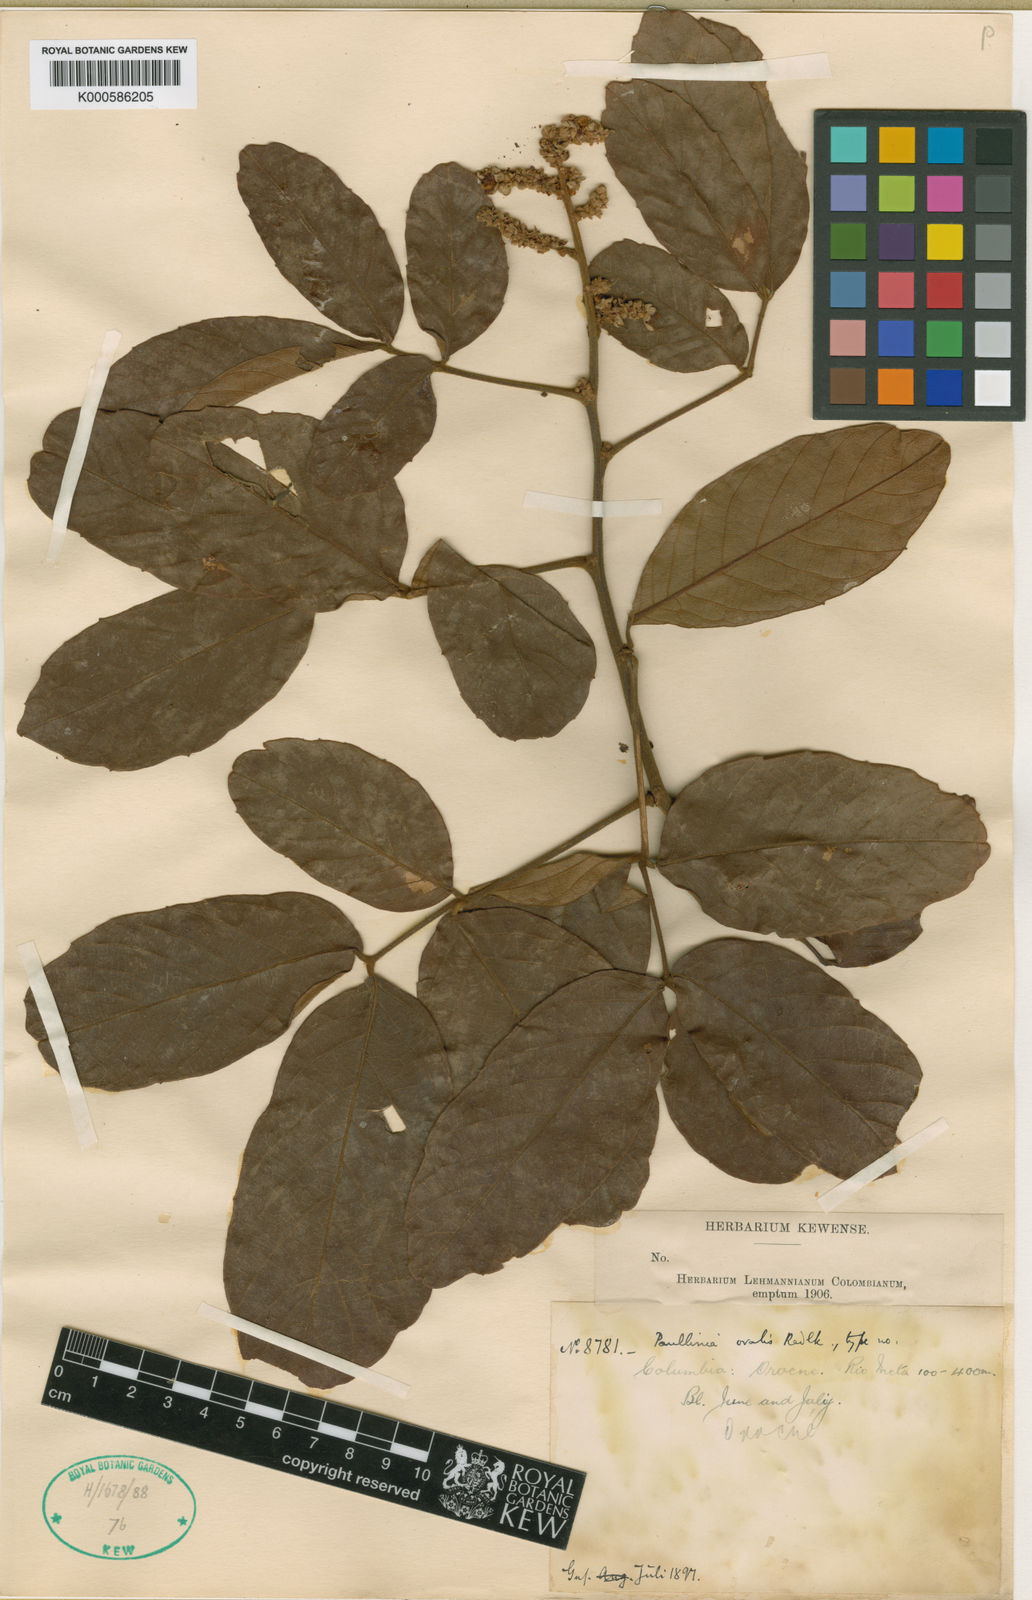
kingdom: Plantae
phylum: Tracheophyta
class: Magnoliopsida
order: Sapindales
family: Sapindaceae
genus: Paullinia
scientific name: Paullinia rugosa
